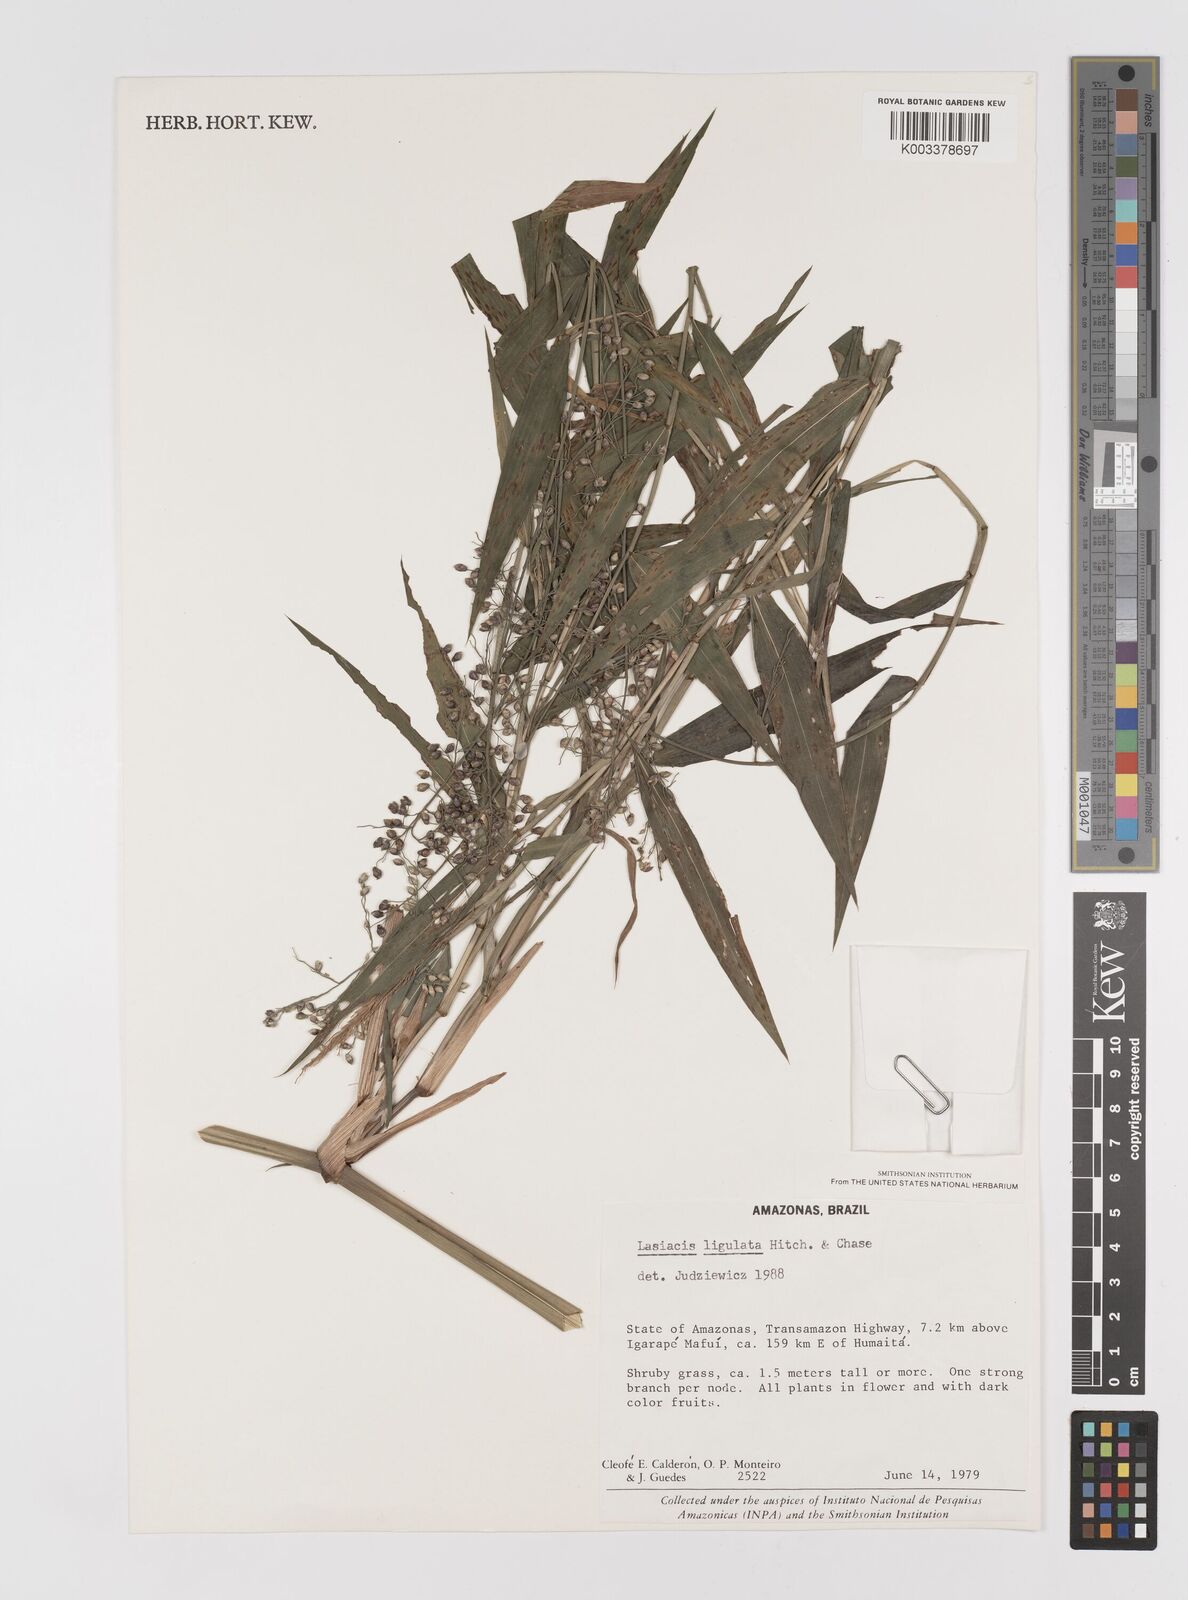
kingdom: Plantae
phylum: Tracheophyta
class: Liliopsida
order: Poales
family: Poaceae
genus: Lasiacis
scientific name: Lasiacis ligulata
